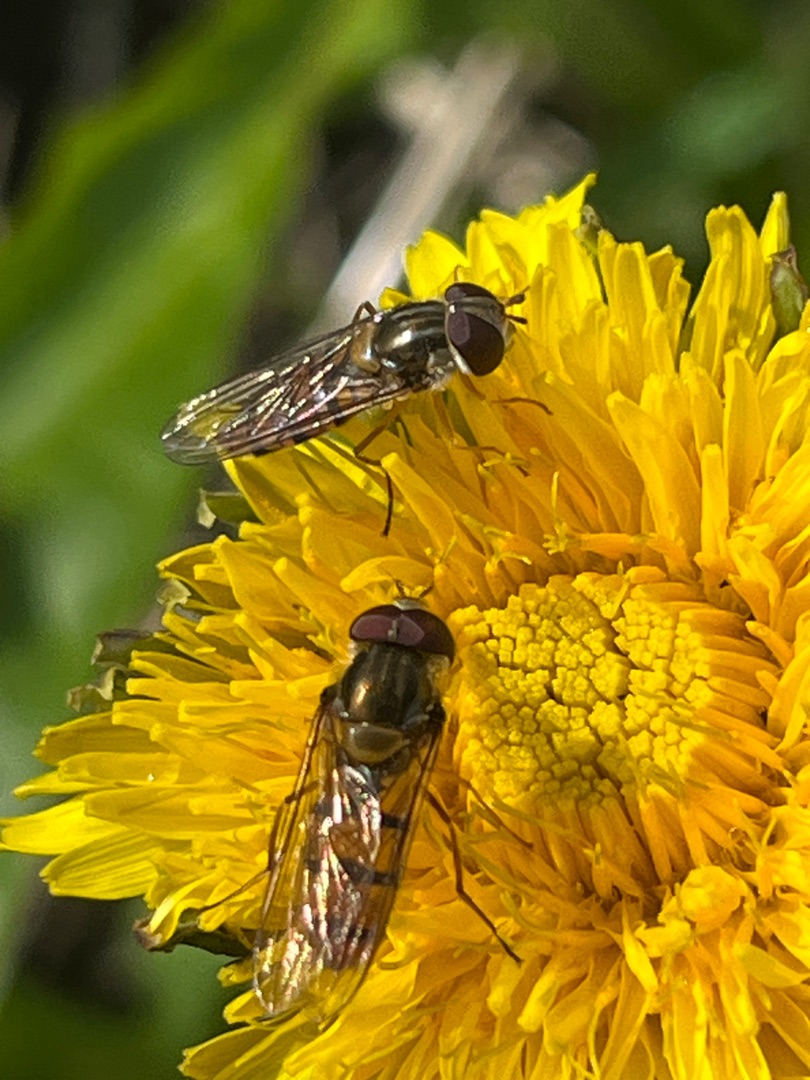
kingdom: Animalia
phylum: Arthropoda
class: Insecta
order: Diptera
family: Syrphidae
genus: Episyrphus
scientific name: Episyrphus balteatus
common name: Dobbeltbåndet svirreflue
